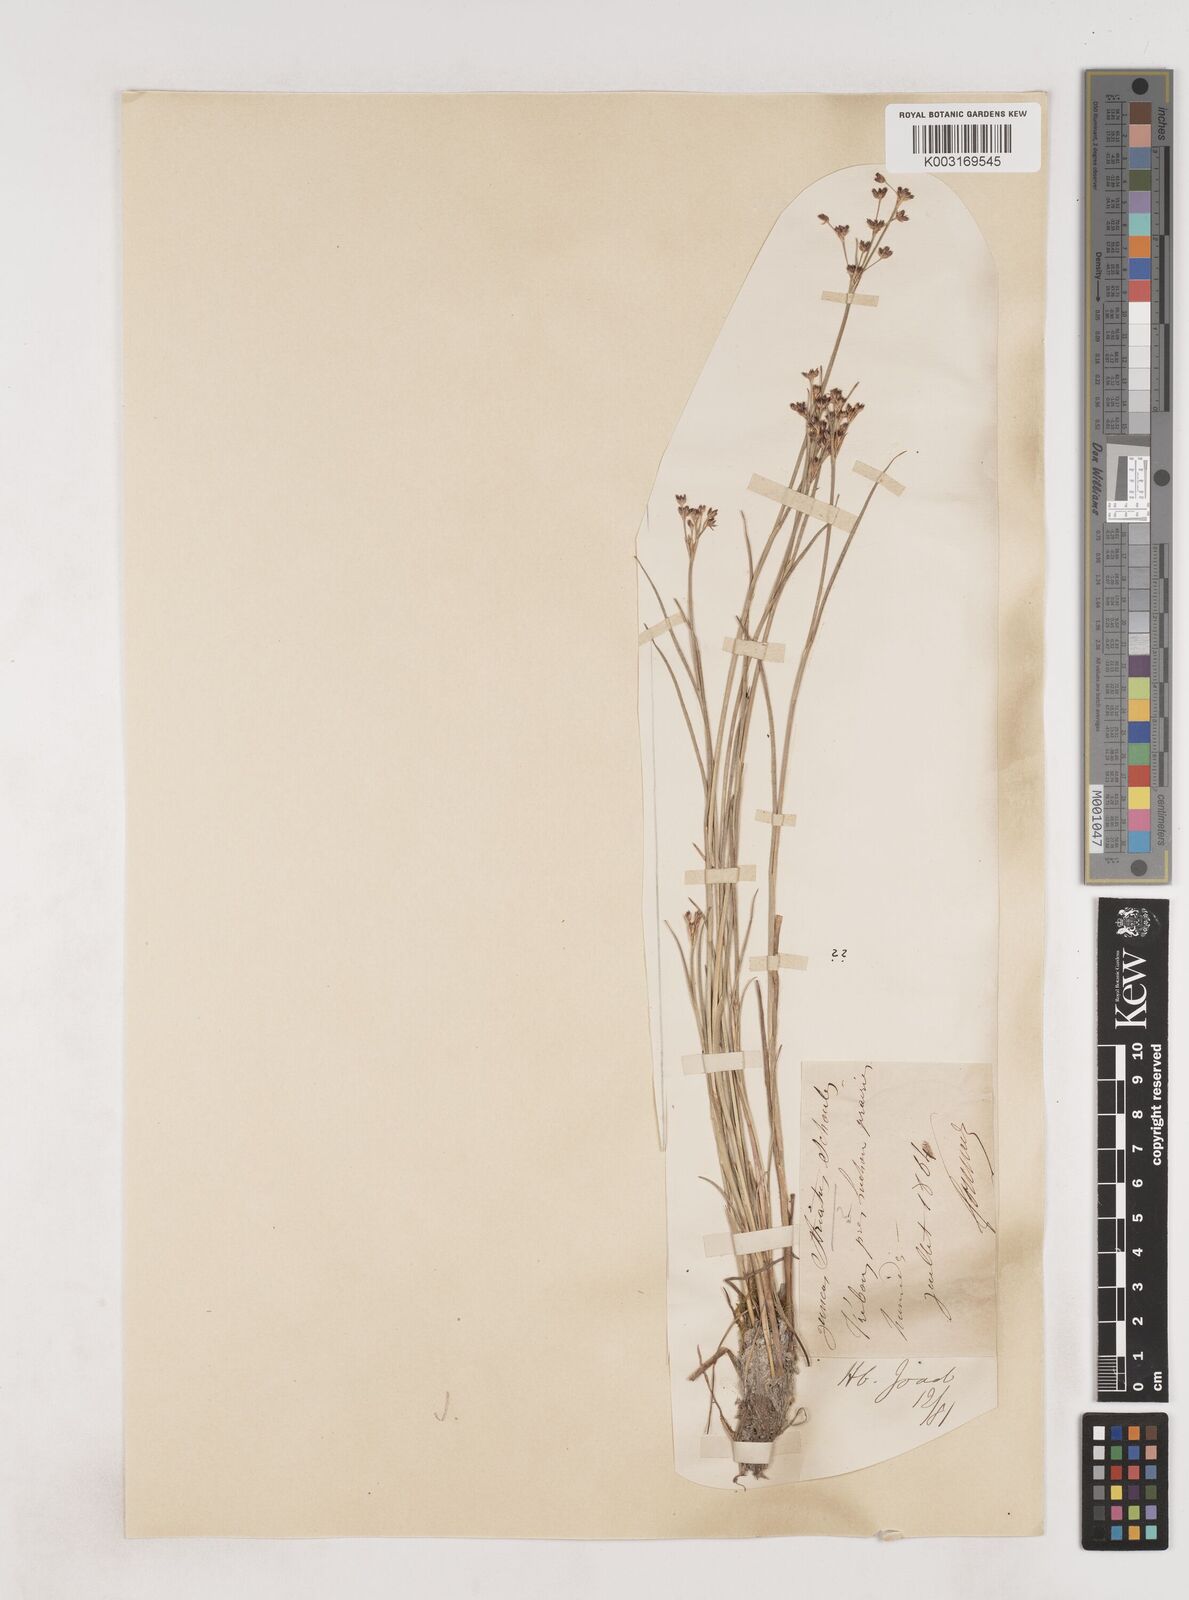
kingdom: Plantae
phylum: Tracheophyta
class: Liliopsida
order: Poales
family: Juncaceae
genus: Juncus
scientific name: Juncus striatus
